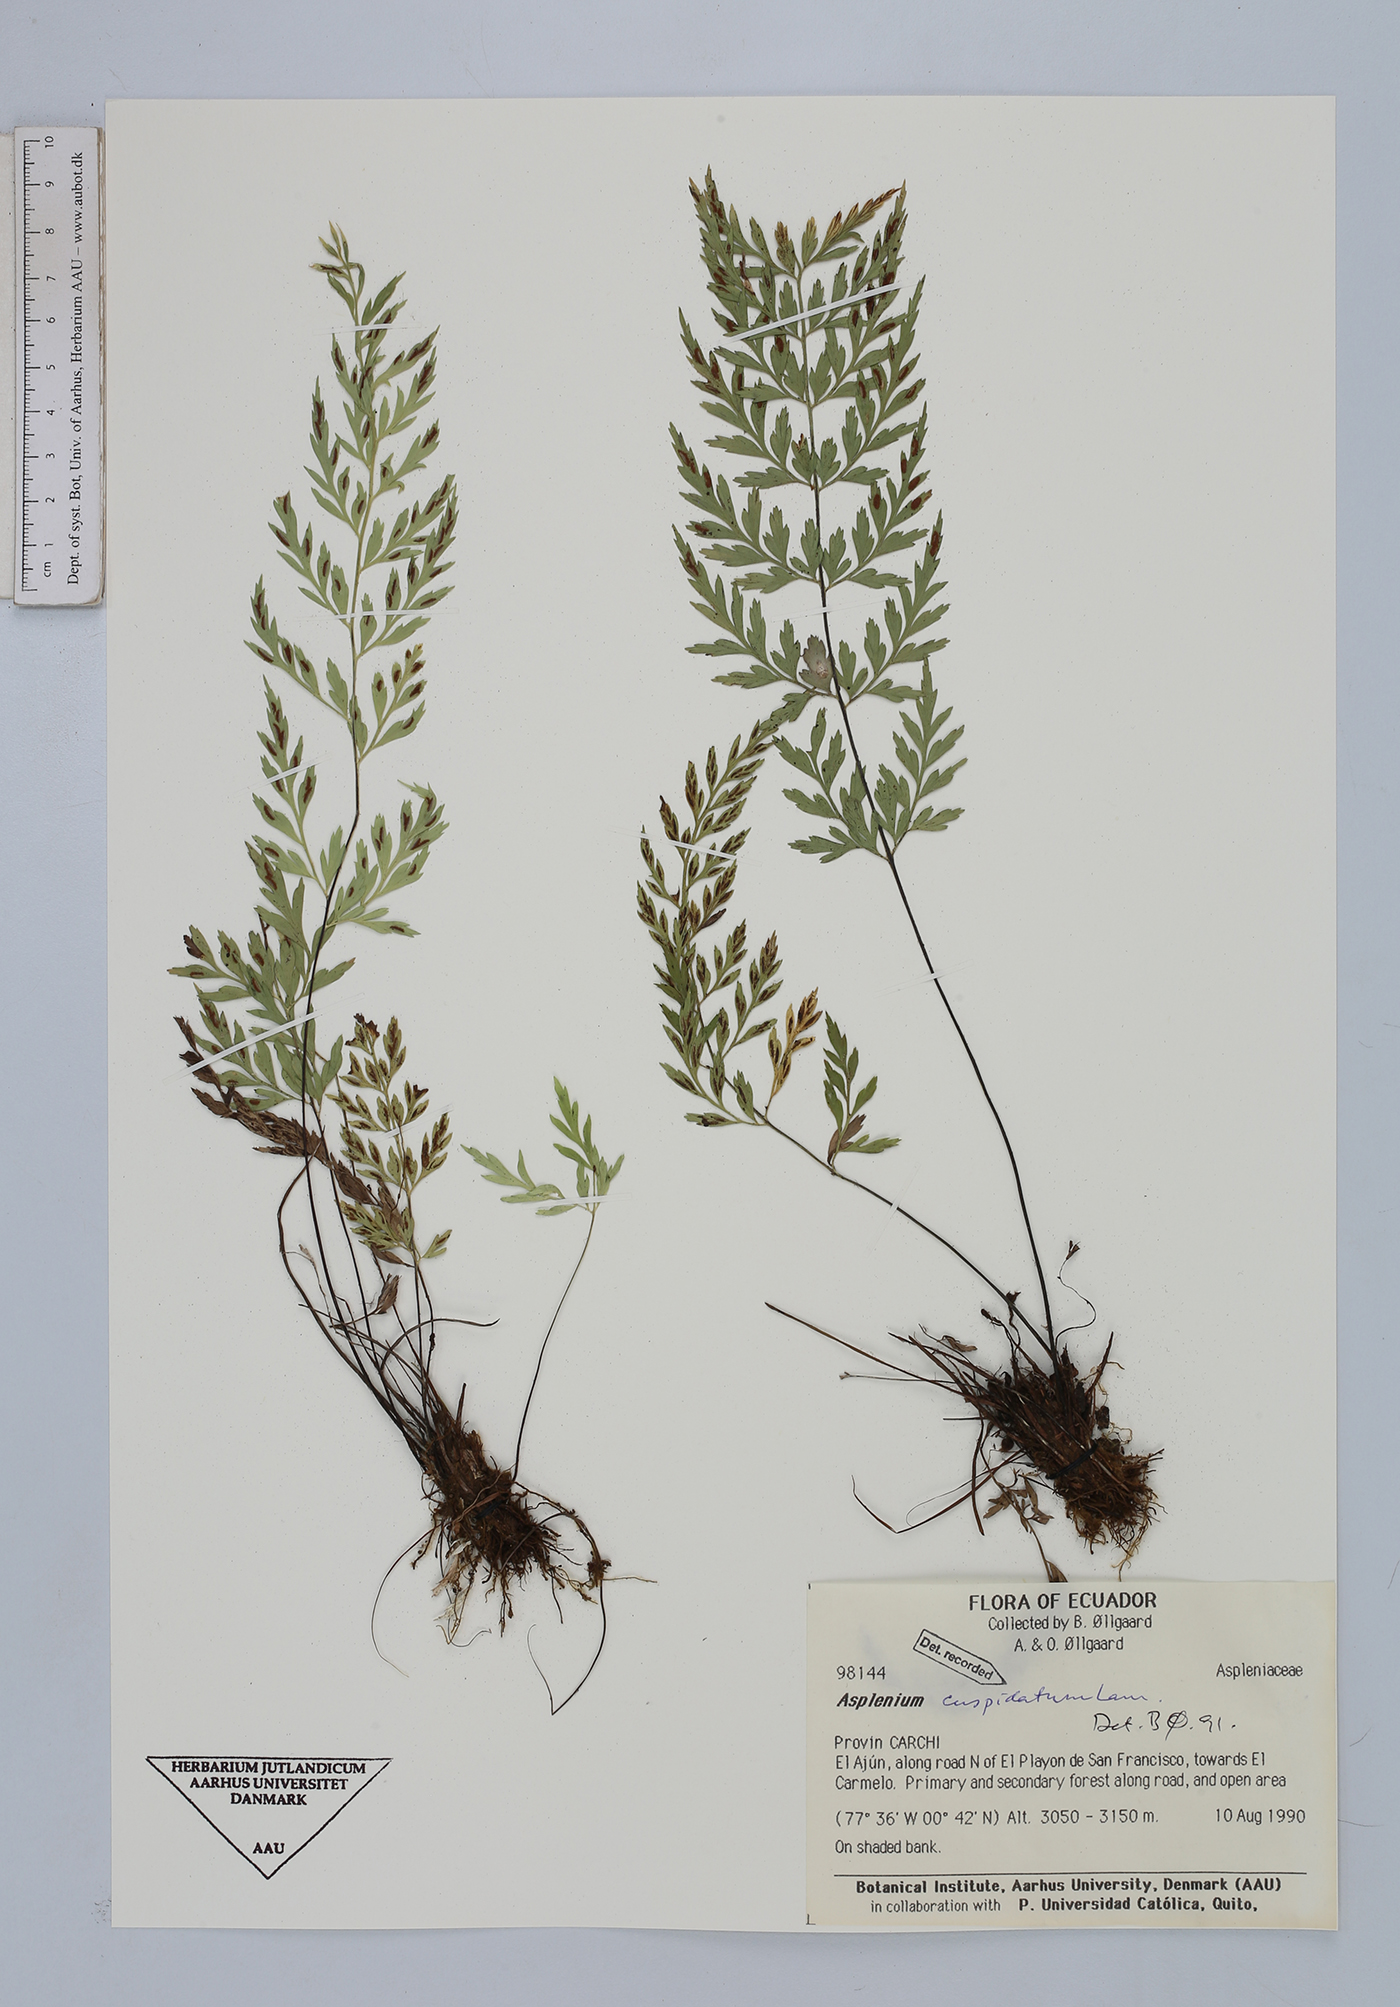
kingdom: Plantae
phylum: Tracheophyta
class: Polypodiopsida
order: Polypodiales
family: Aspleniaceae
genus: Asplenium
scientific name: Asplenium cuspidatum
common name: Eared spleenwort
